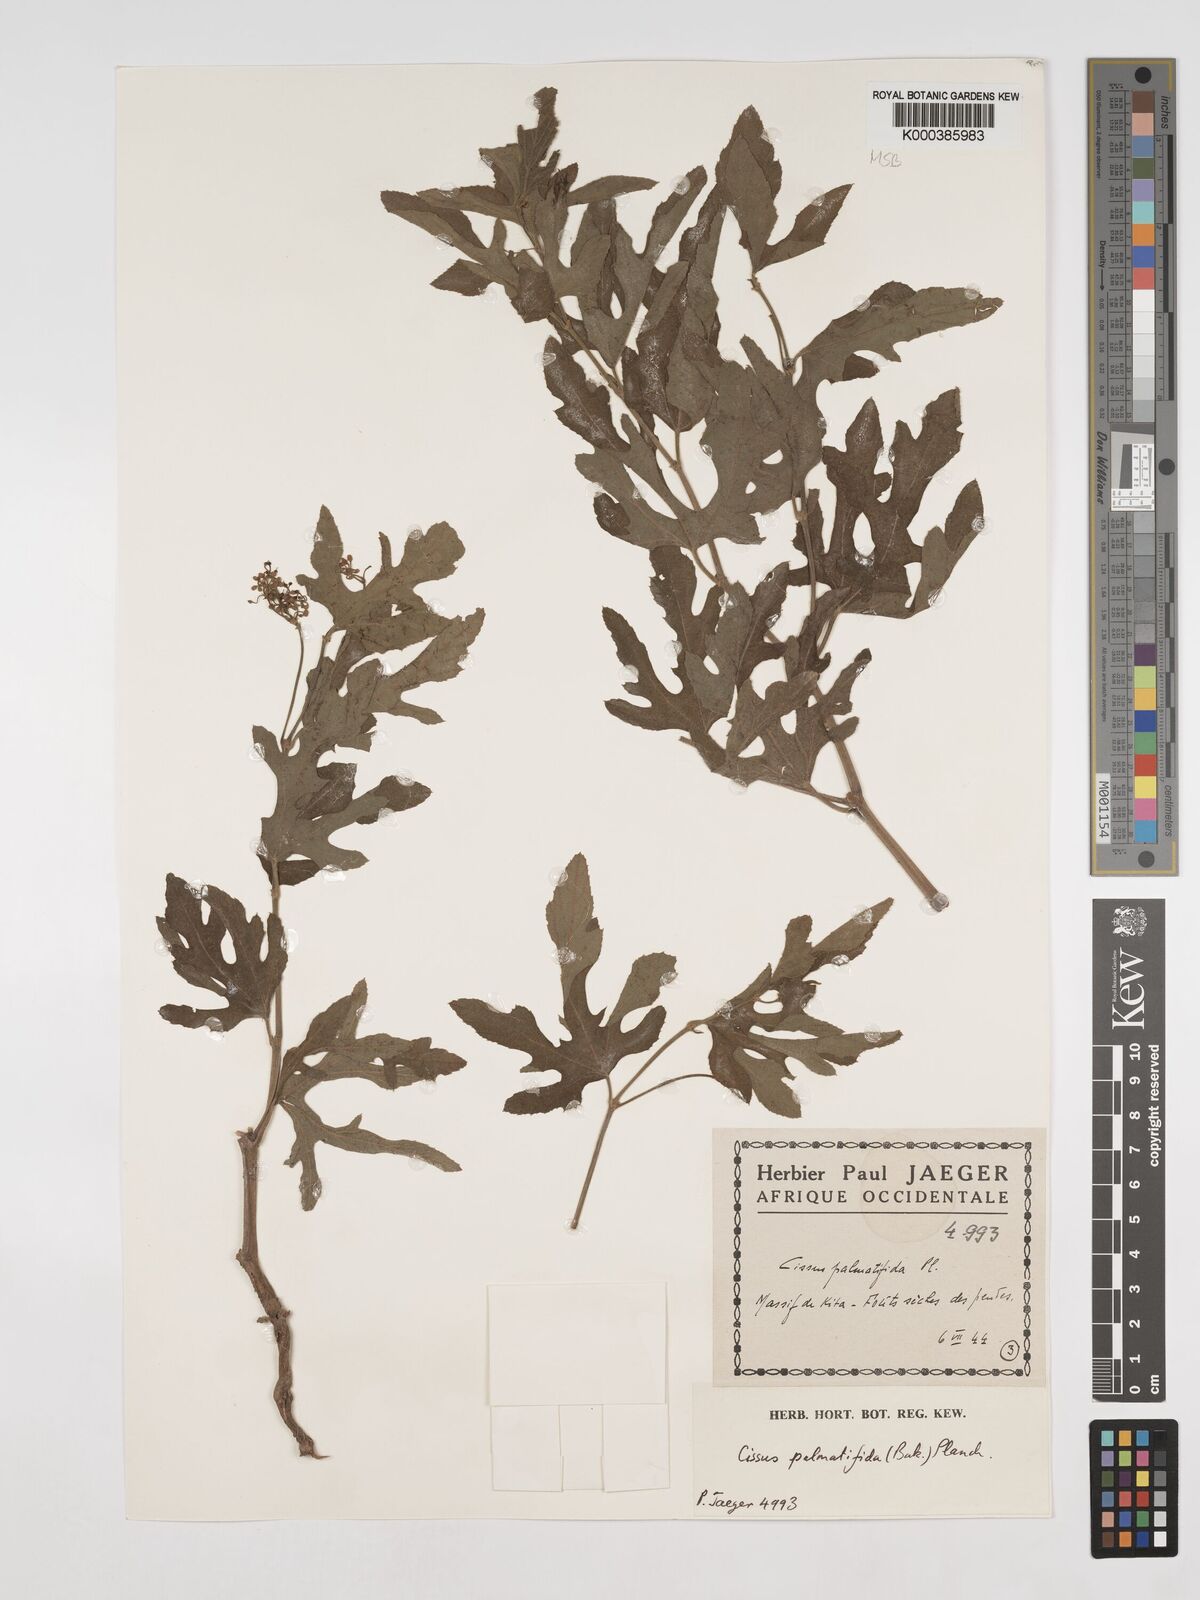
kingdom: Plantae
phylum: Tracheophyta
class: Magnoliopsida
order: Vitales
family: Vitaceae
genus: Cissus
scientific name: Cissus palmatifida
